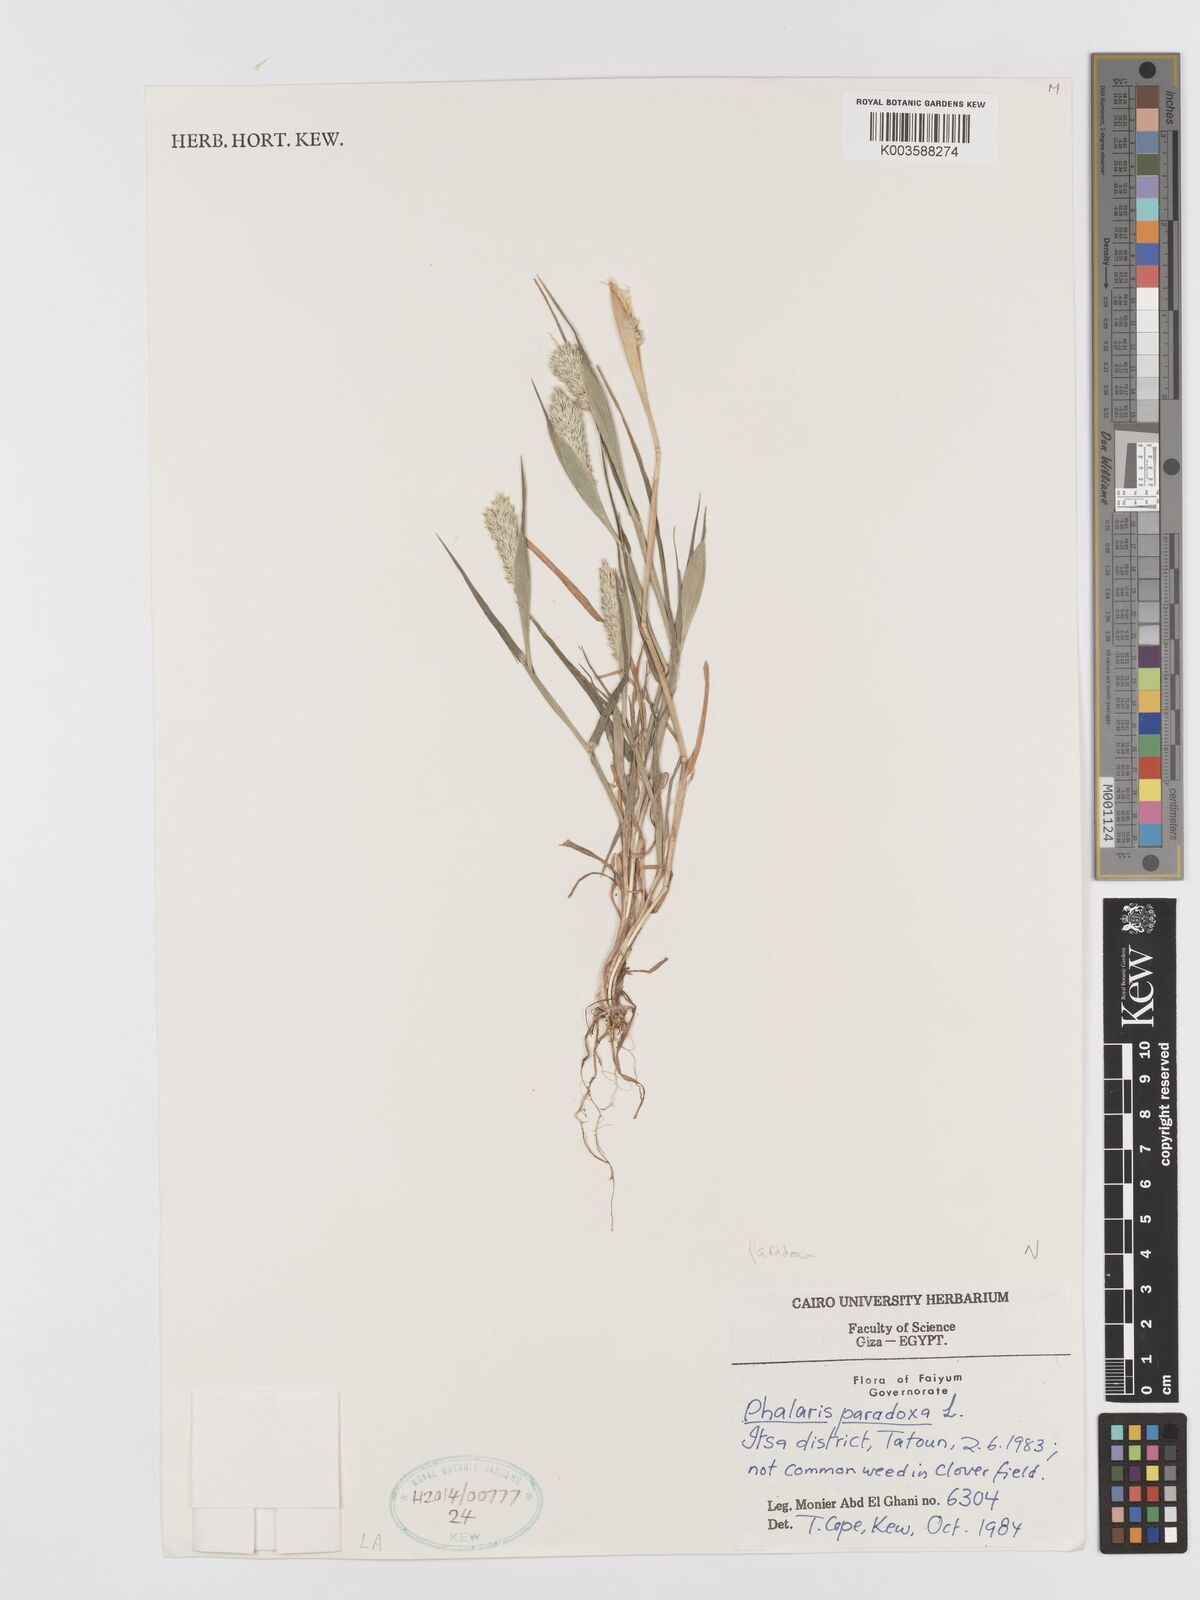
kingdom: Plantae
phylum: Tracheophyta
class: Liliopsida
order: Poales
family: Poaceae
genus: Phalaris
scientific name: Phalaris paradoxa
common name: Awned canary-grass
